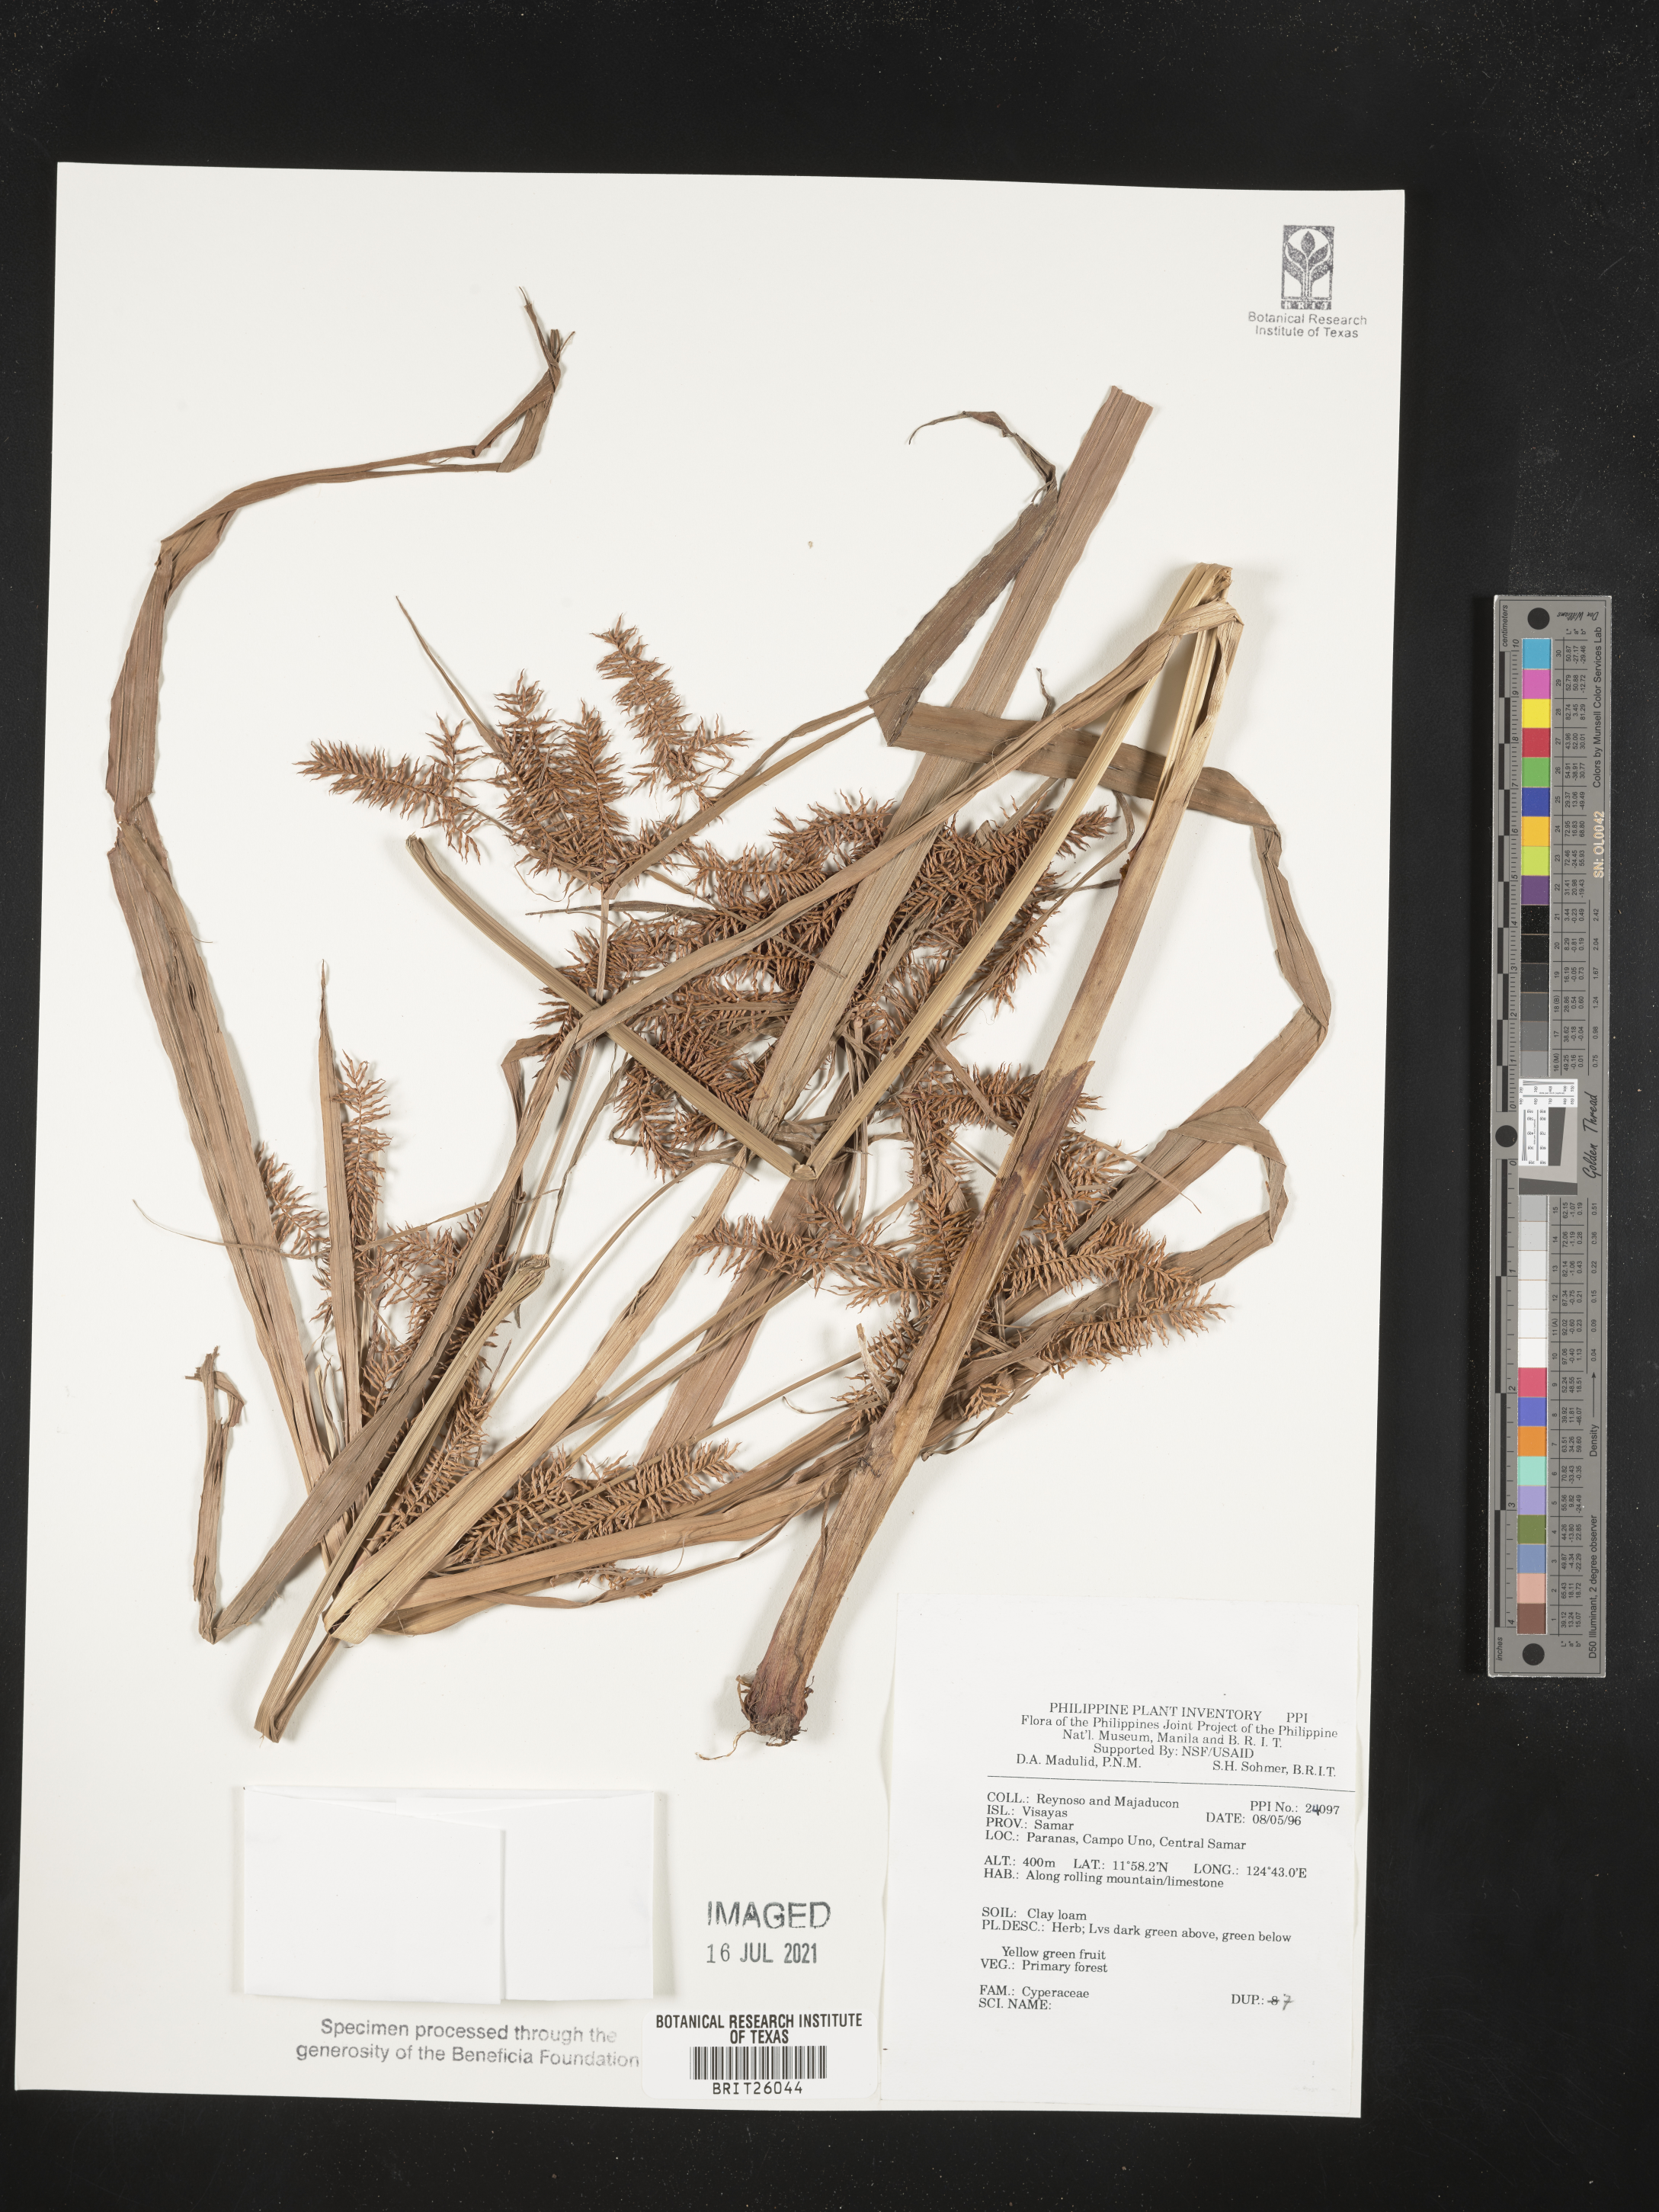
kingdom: Plantae
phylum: Tracheophyta
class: Liliopsida
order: Poales
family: Cyperaceae
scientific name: Cyperaceae
